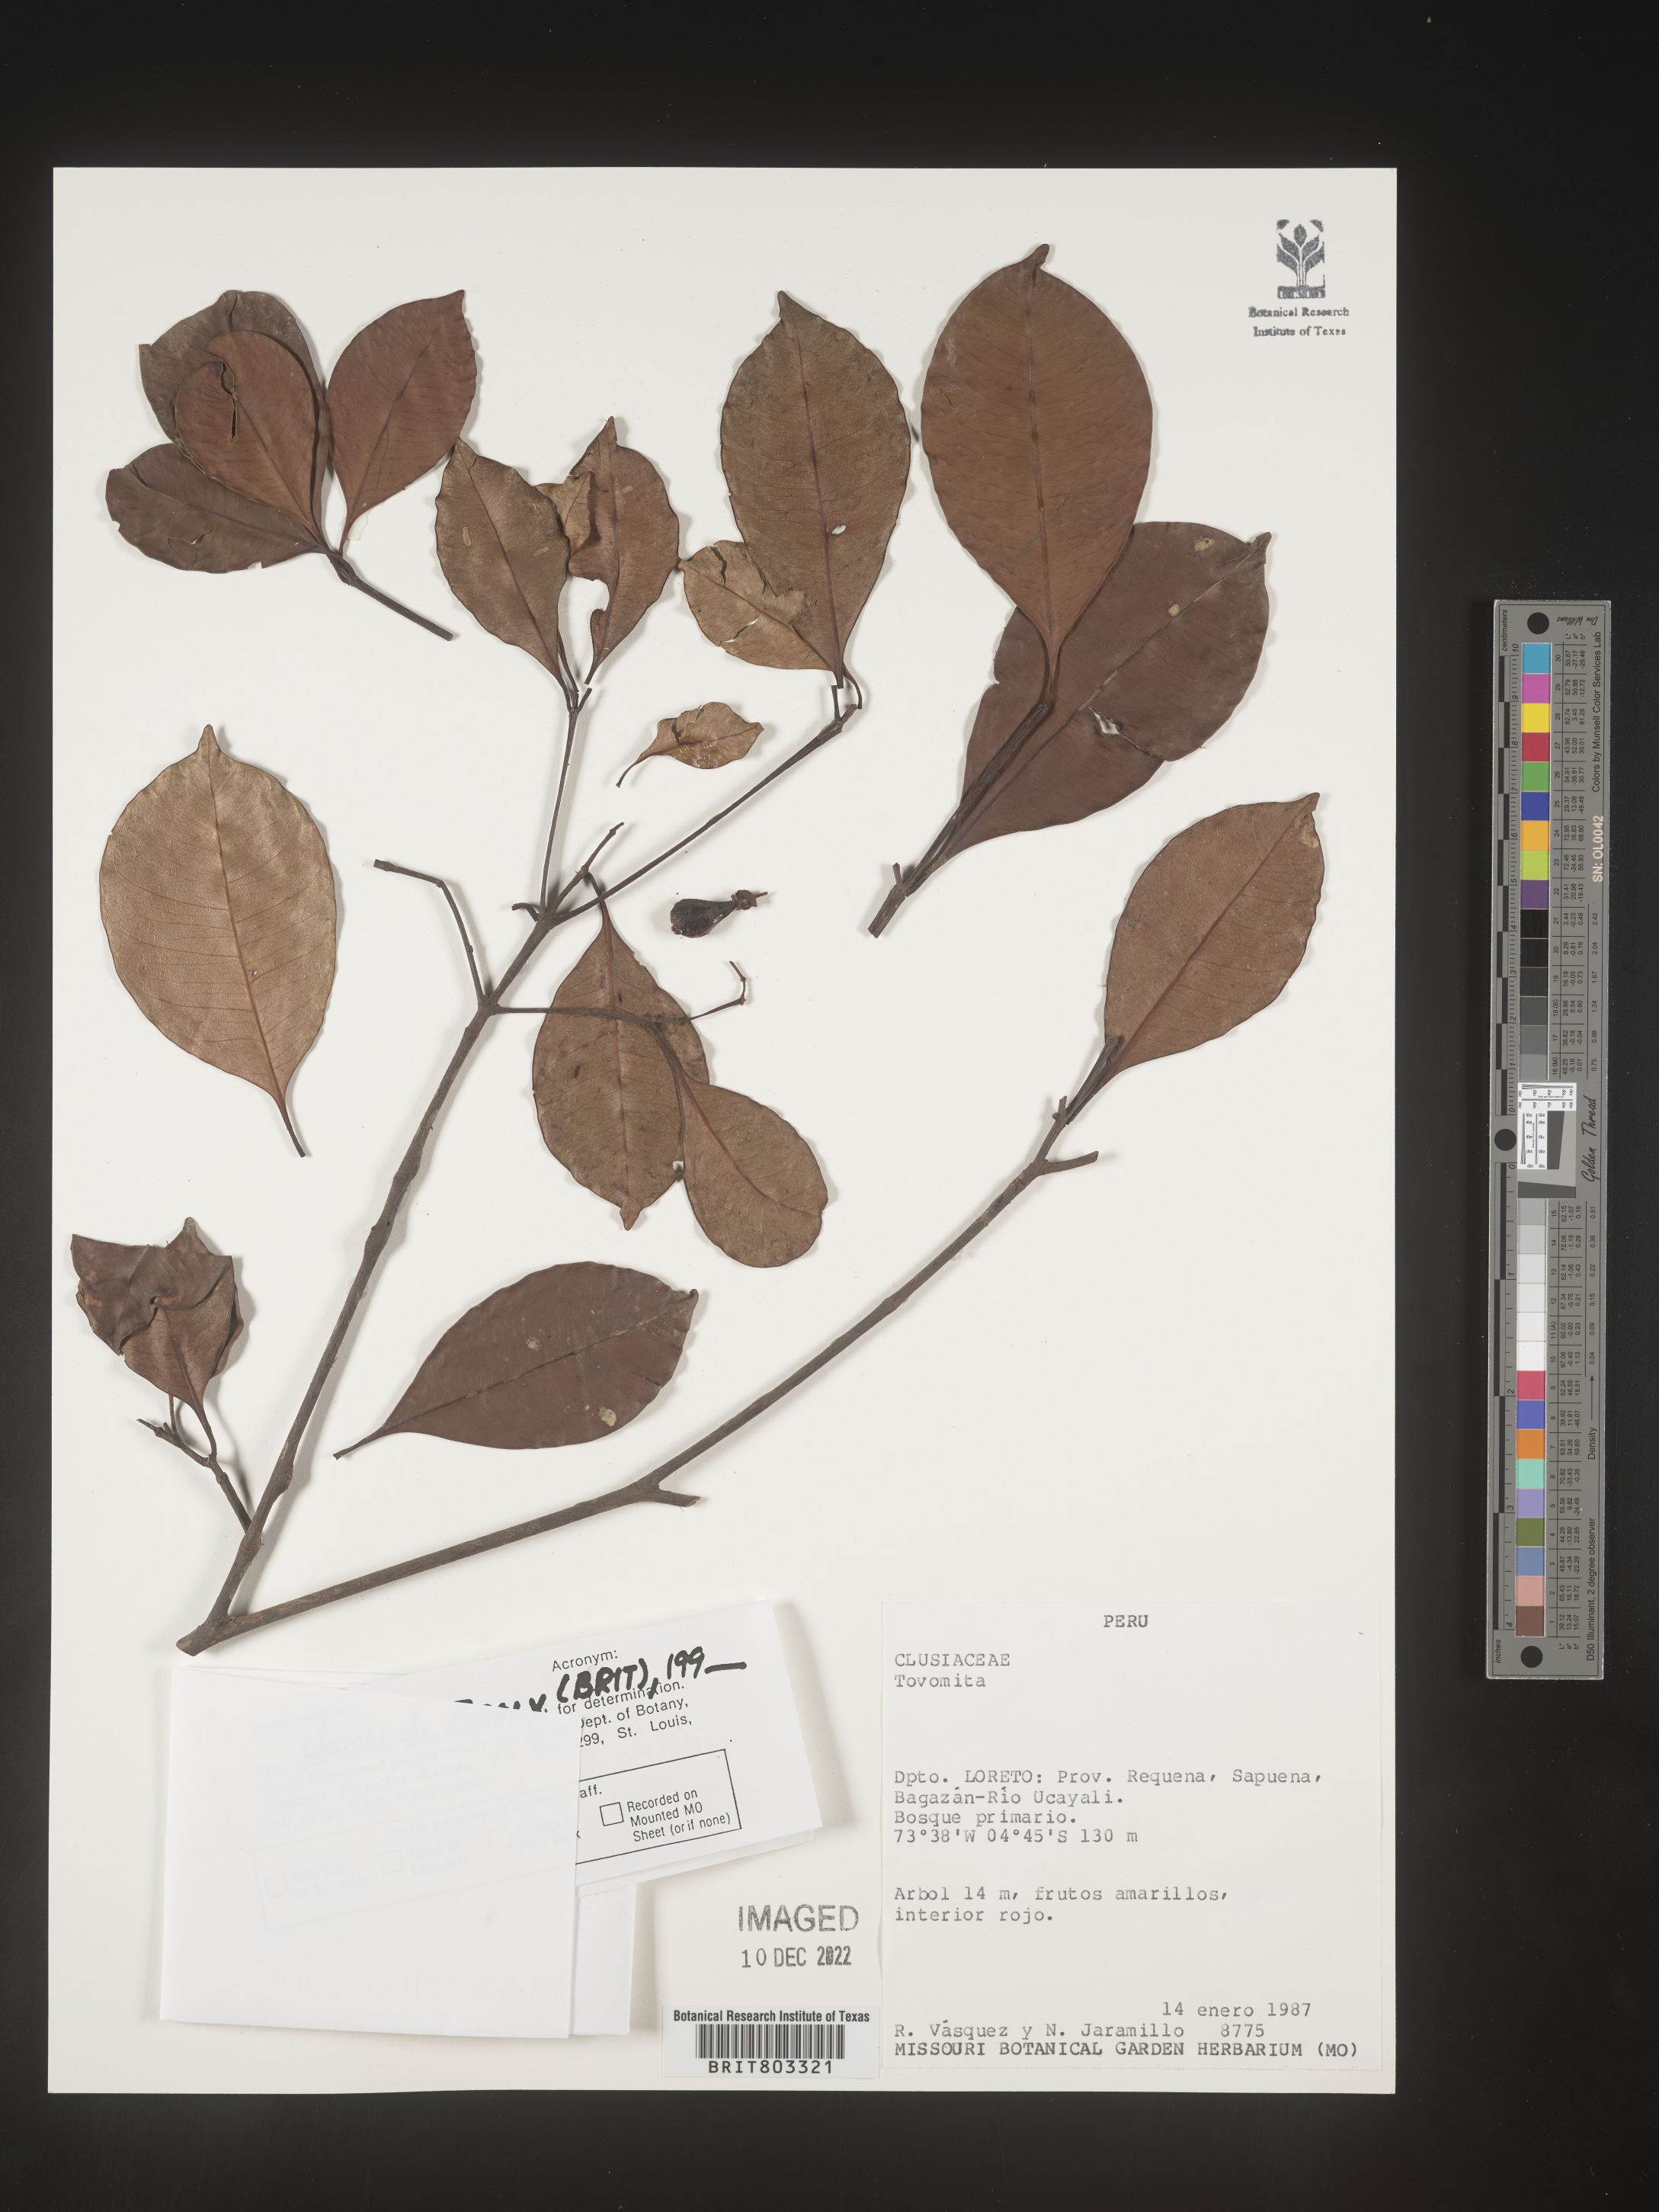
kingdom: Plantae
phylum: Tracheophyta
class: Magnoliopsida
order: Malpighiales
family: Clusiaceae
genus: Tovomita
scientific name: Tovomita
